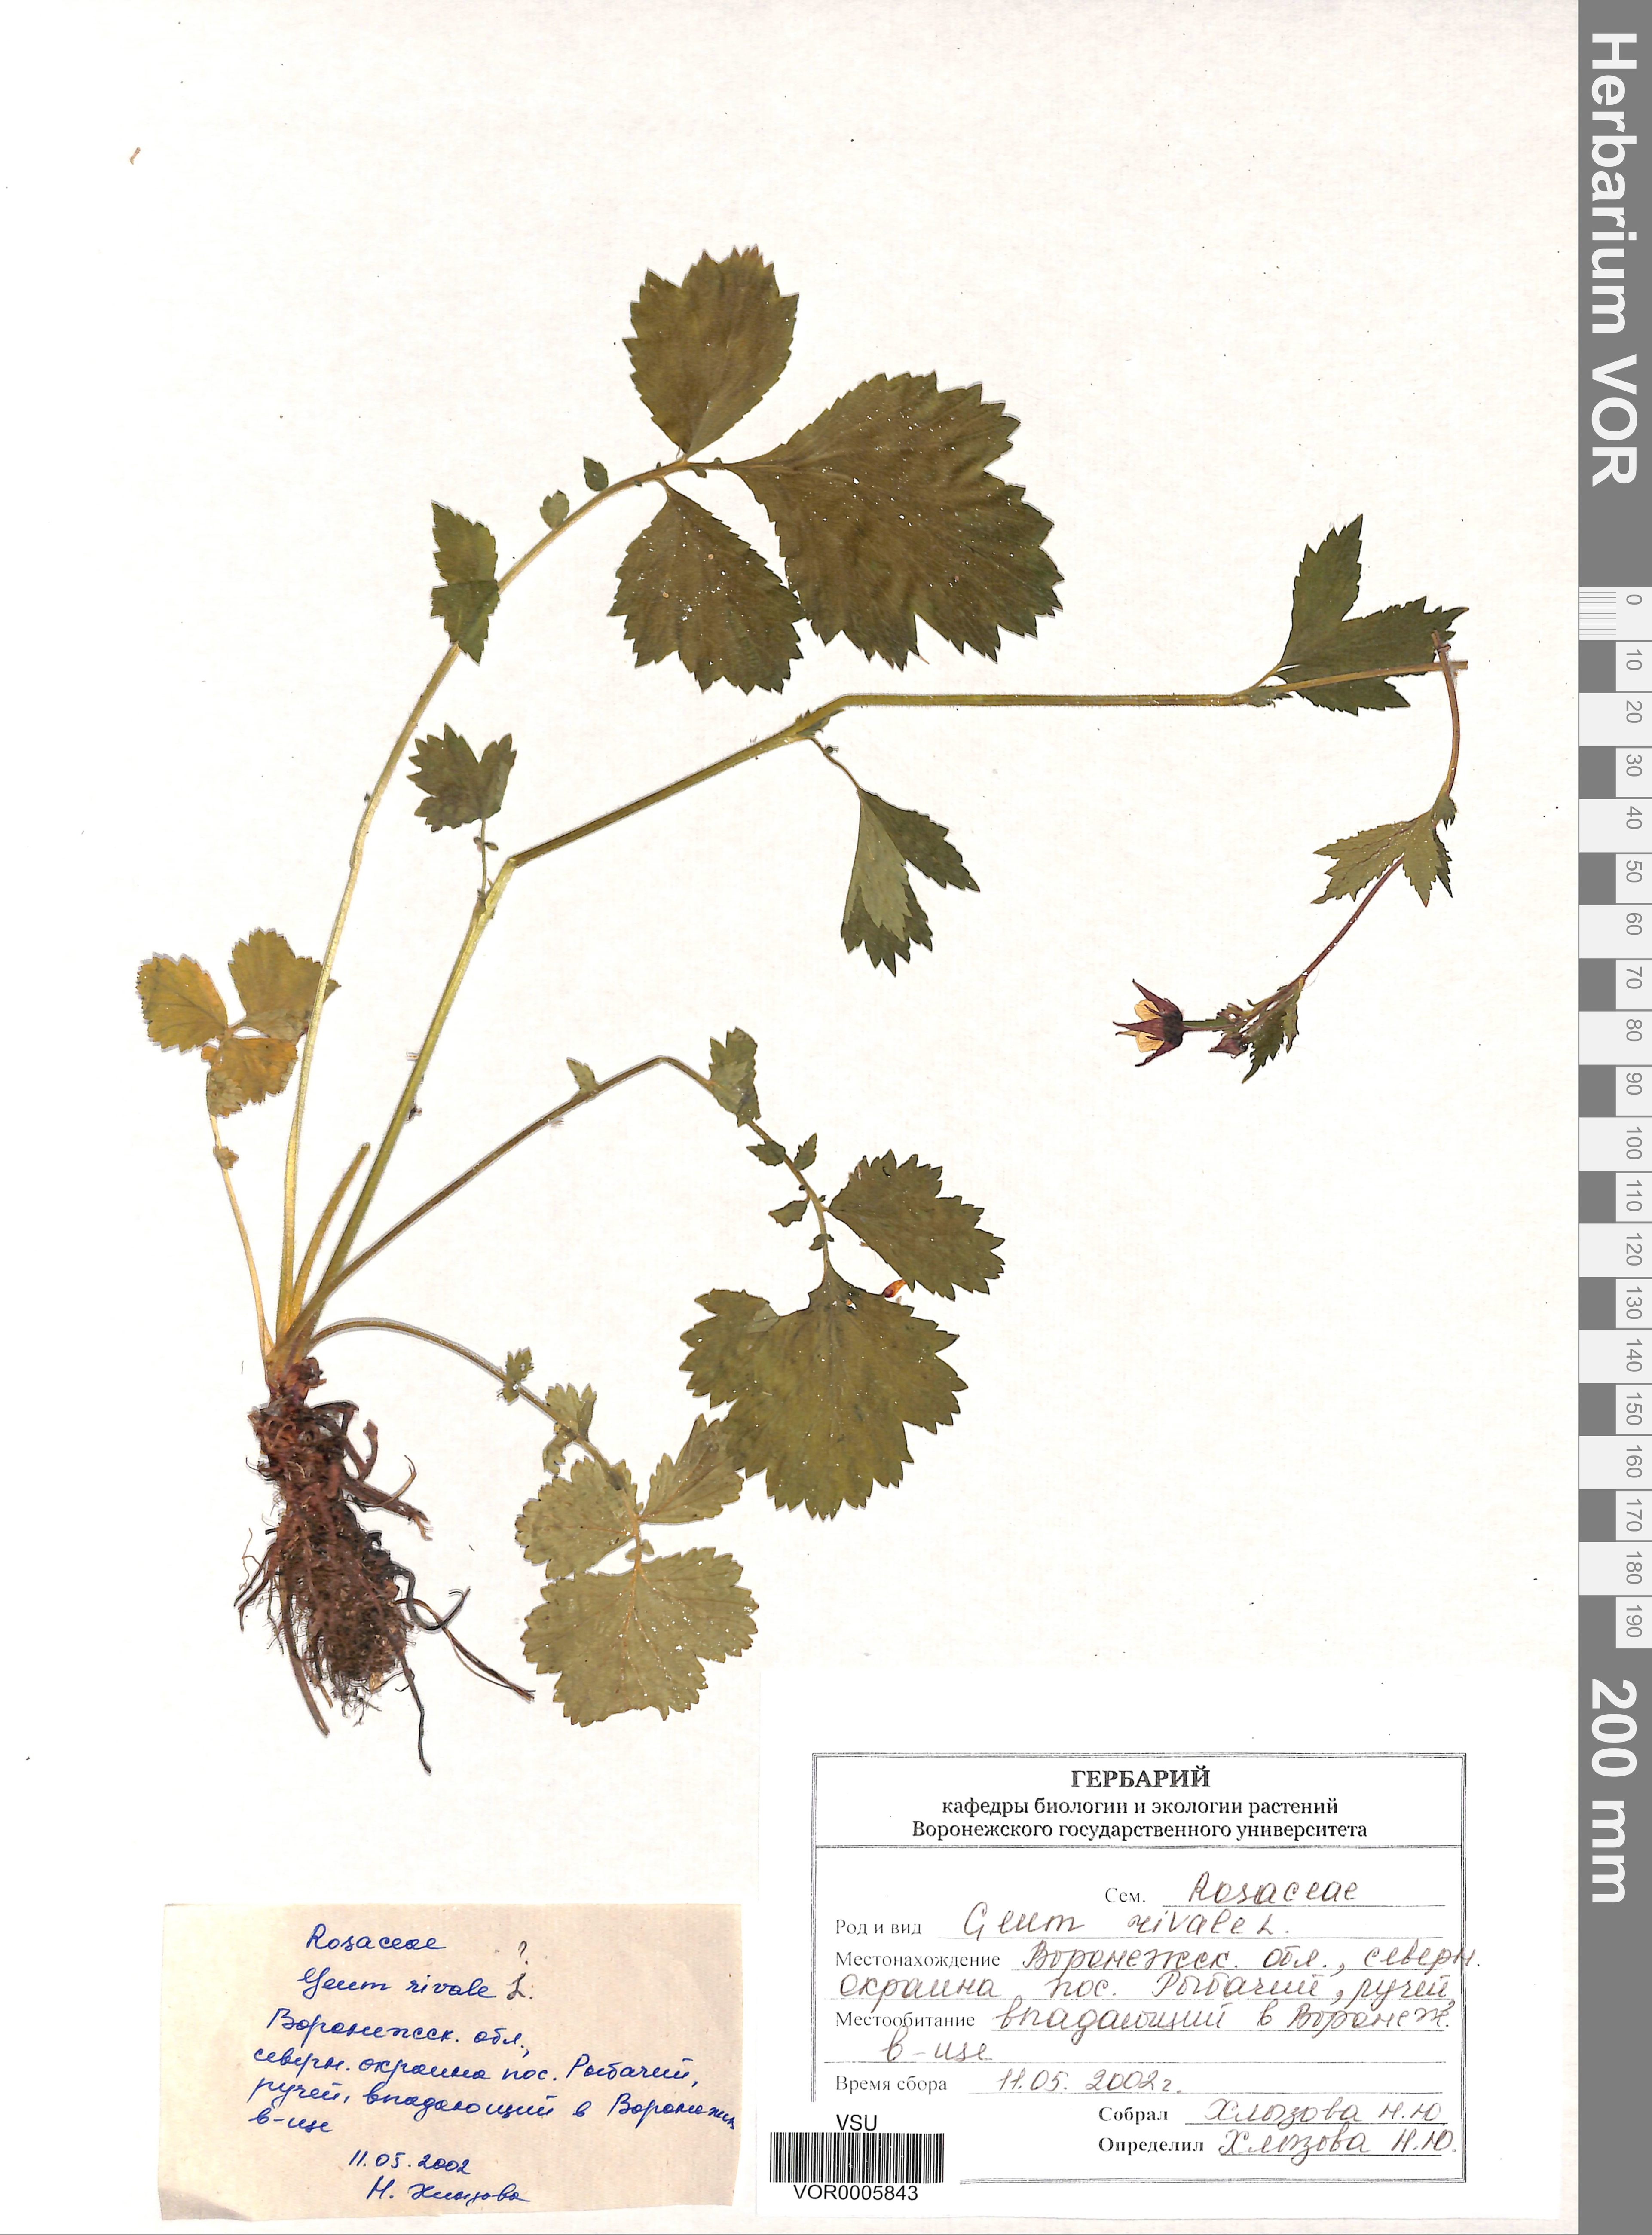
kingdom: Plantae
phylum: Tracheophyta
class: Magnoliopsida
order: Rosales
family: Rosaceae
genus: Geum
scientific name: Geum rivale
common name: Water avens
